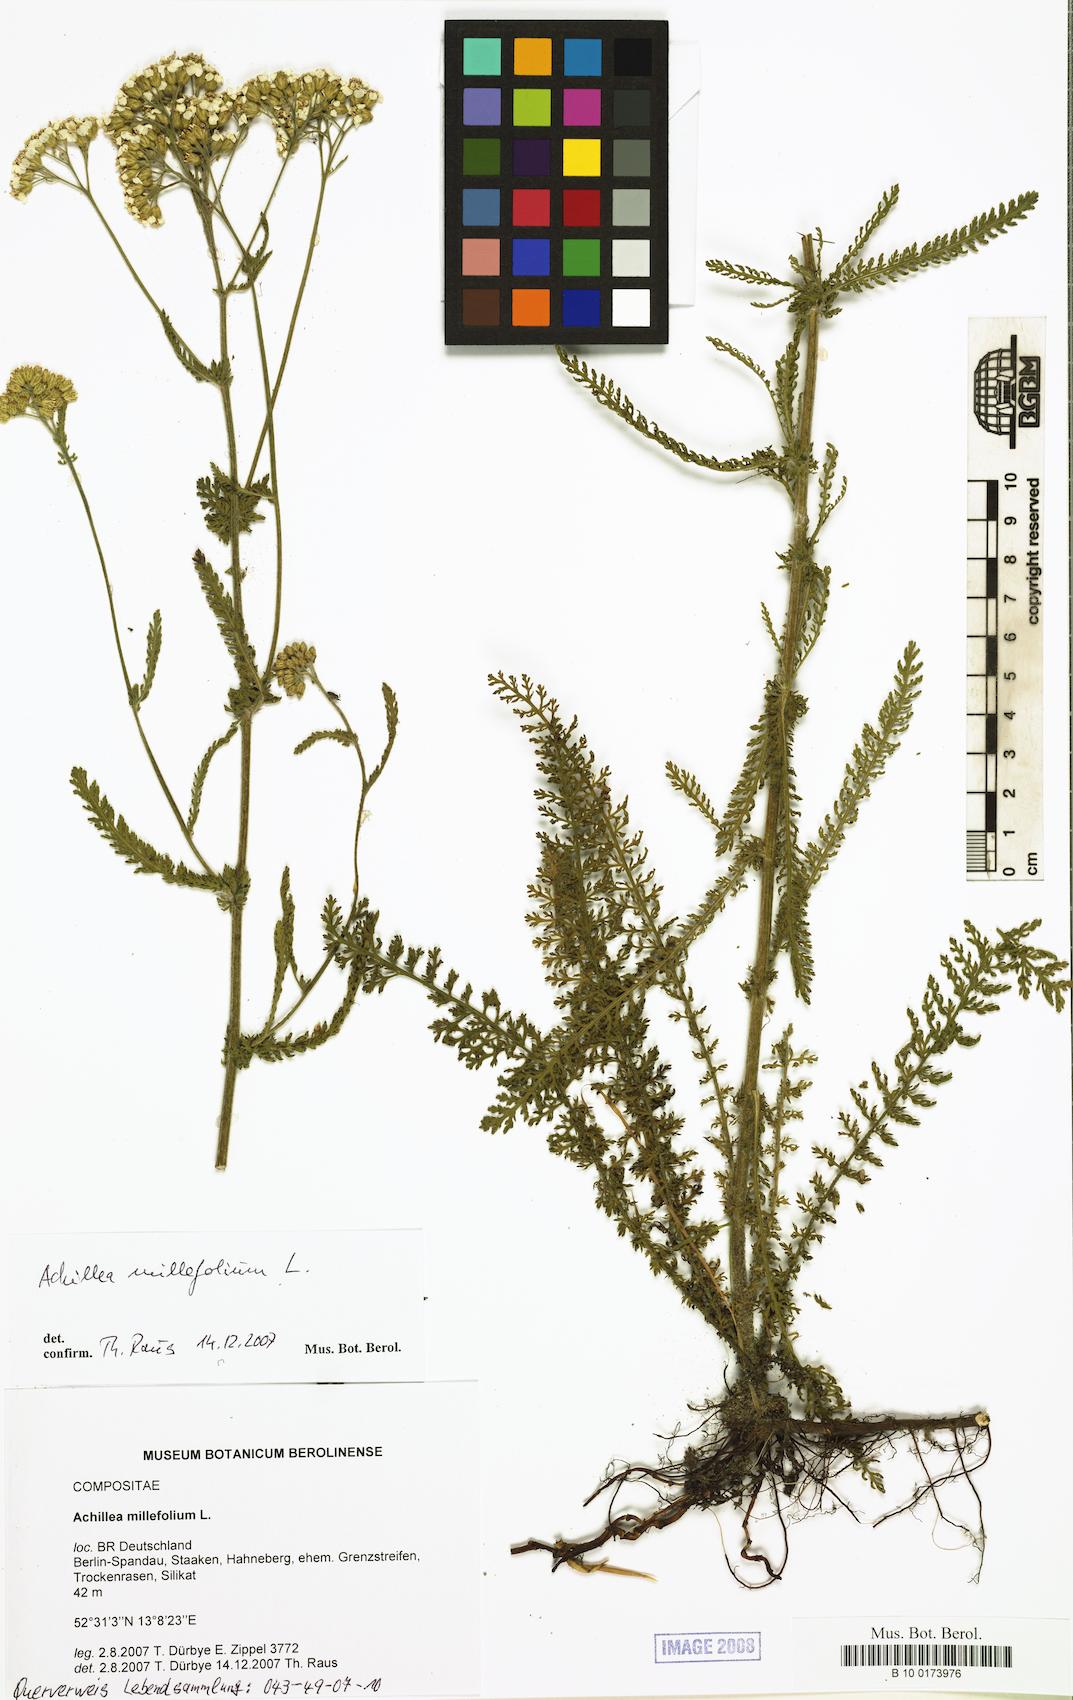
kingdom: Plantae
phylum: Tracheophyta
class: Magnoliopsida
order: Asterales
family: Asteraceae
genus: Achillea
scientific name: Achillea millefolium
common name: Yarrow
